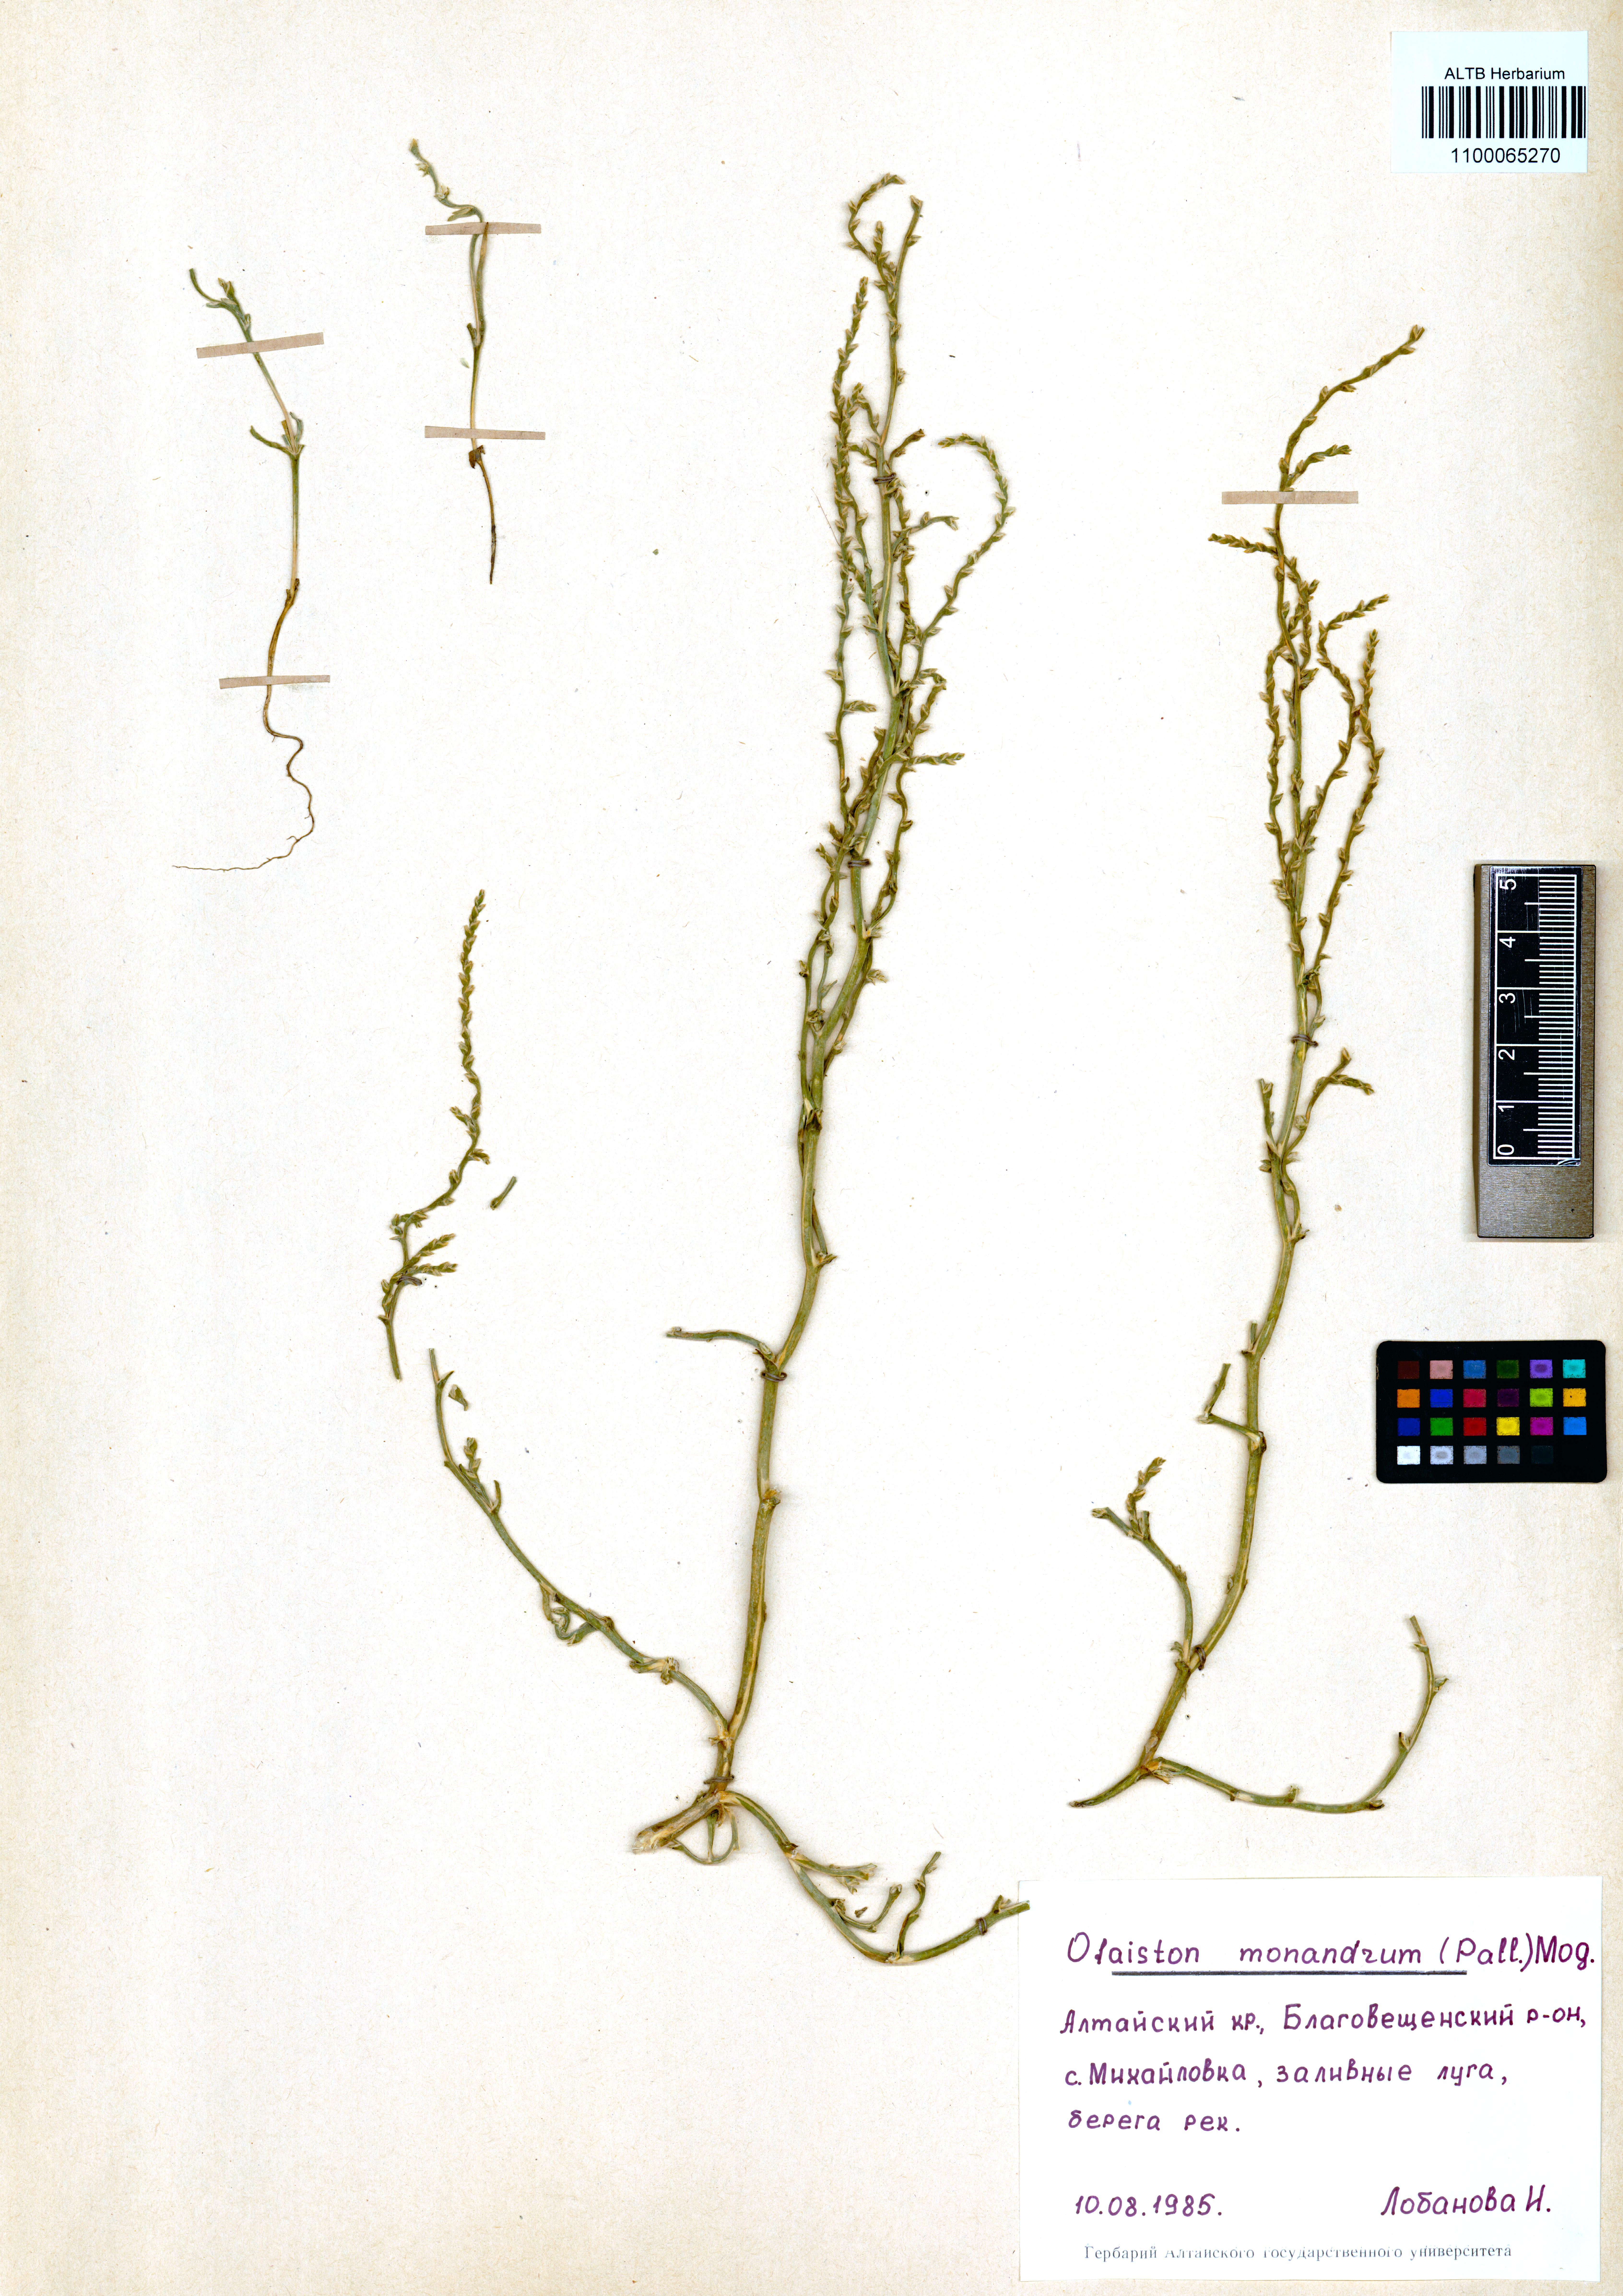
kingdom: Plantae
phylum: Tracheophyta
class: Magnoliopsida
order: Caryophyllales
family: Amaranthaceae
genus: Ofaiston
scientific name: Ofaiston monandrum
